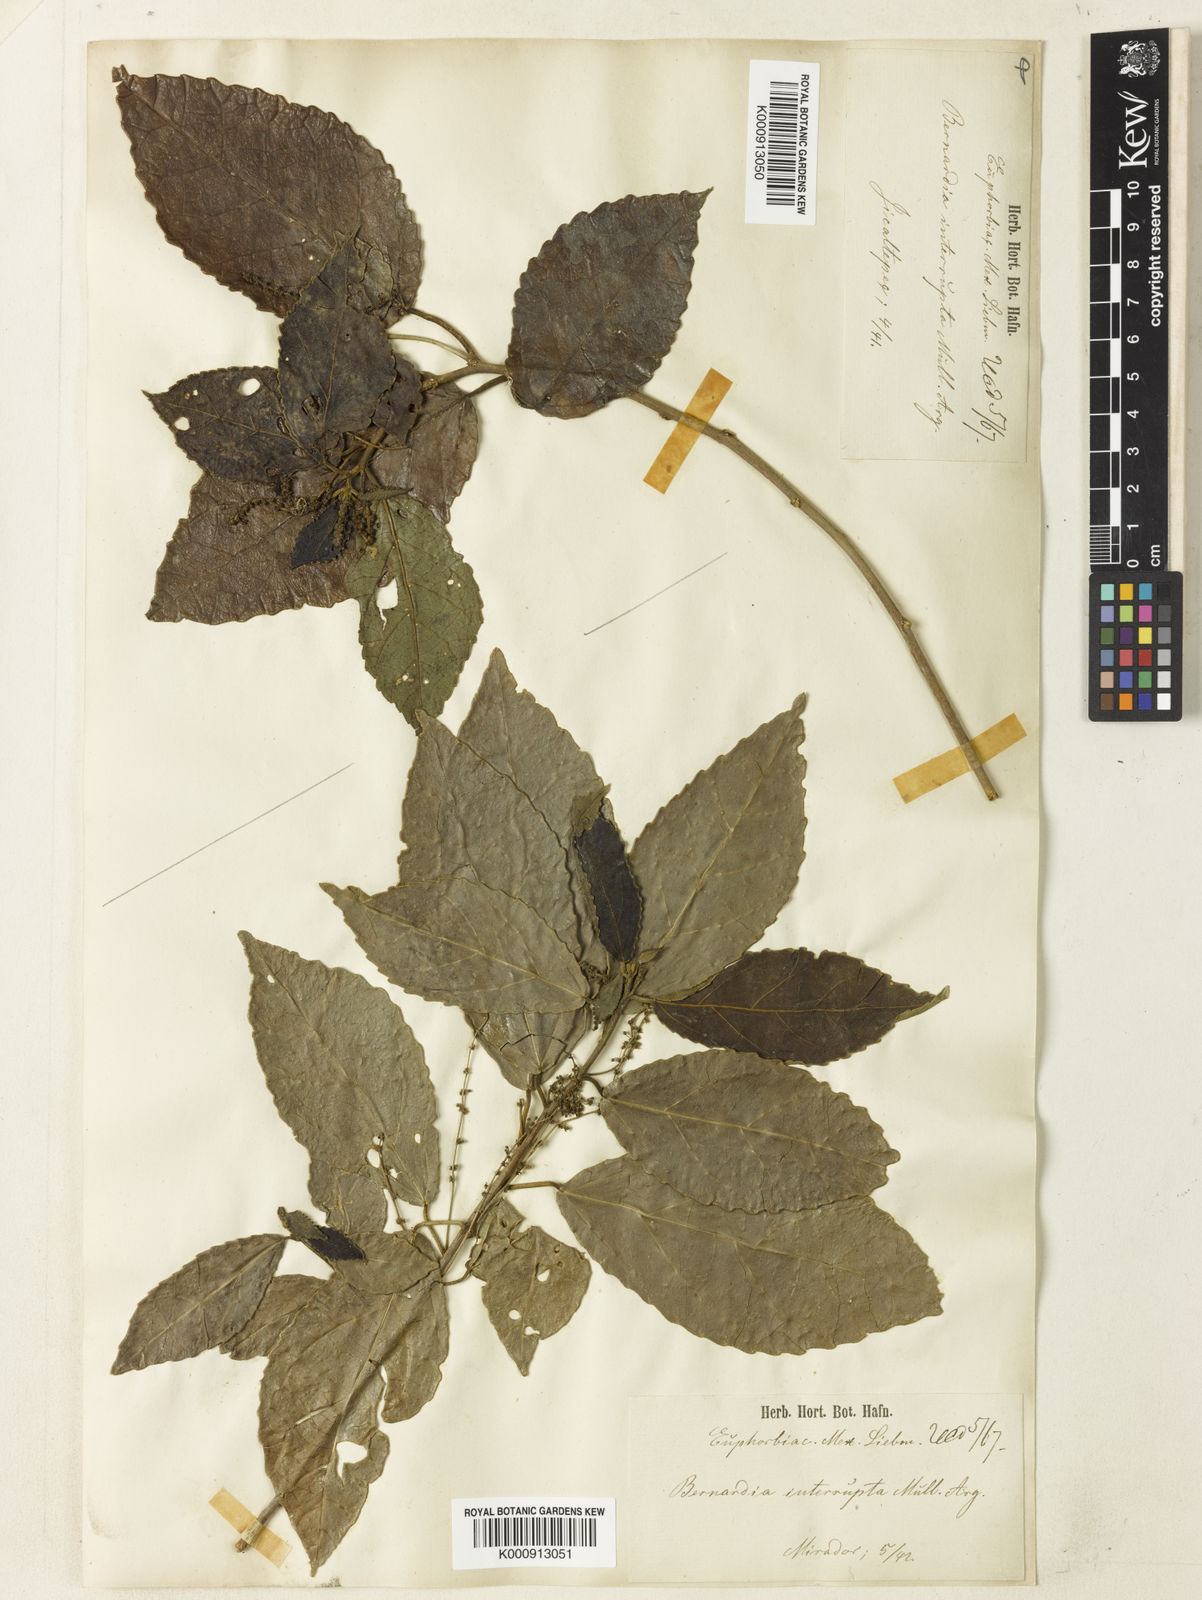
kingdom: Plantae
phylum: Tracheophyta
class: Magnoliopsida
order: Malpighiales
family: Euphorbiaceae
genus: Bernardia
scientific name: Bernardia
